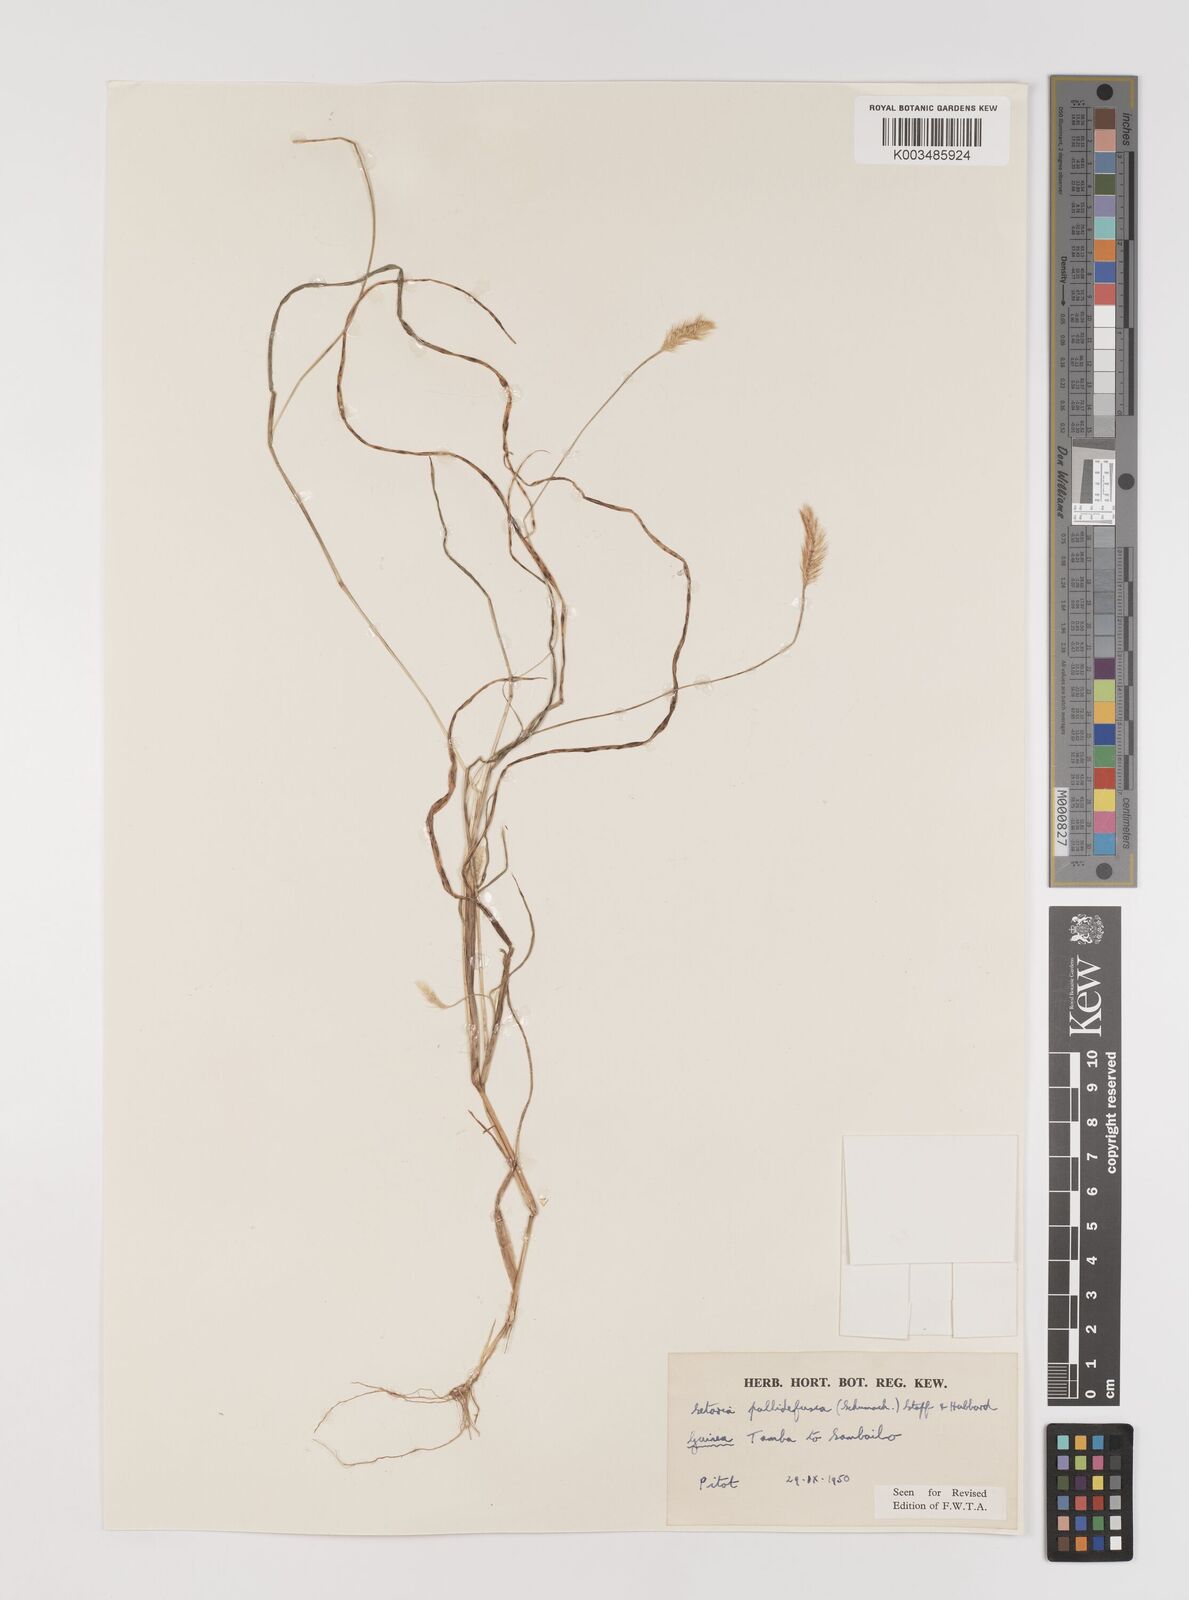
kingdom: Plantae
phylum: Tracheophyta
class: Liliopsida
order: Poales
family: Poaceae
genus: Setaria
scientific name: Setaria pumila
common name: Yellow bristle-grass
